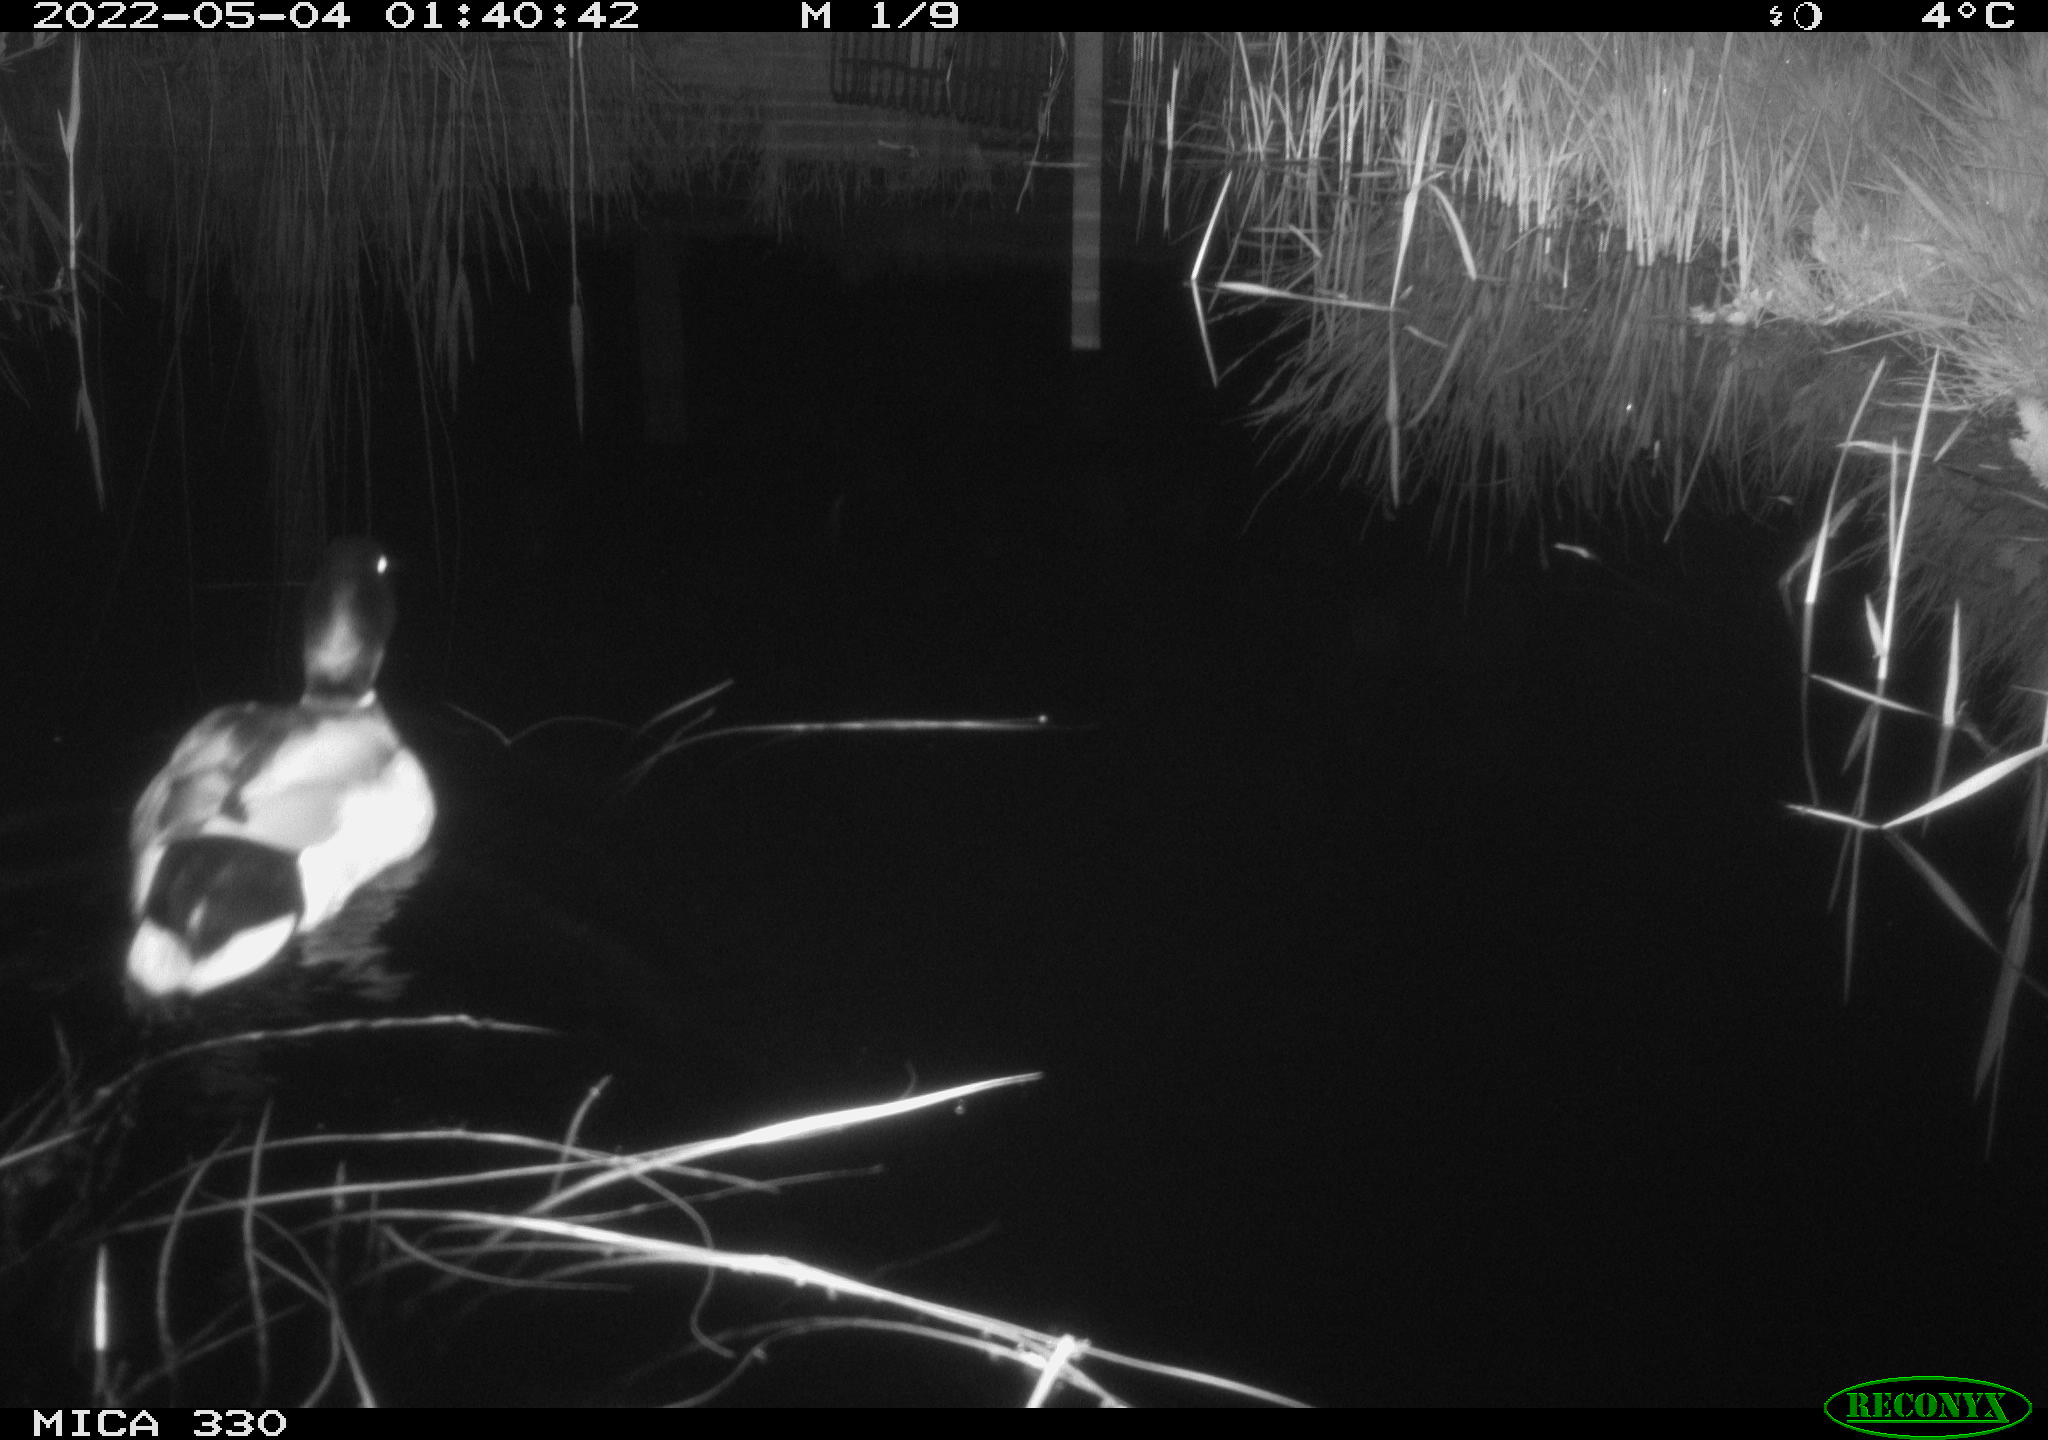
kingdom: Animalia
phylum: Chordata
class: Aves
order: Anseriformes
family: Anatidae
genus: Anas
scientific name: Anas platyrhynchos
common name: Mallard
